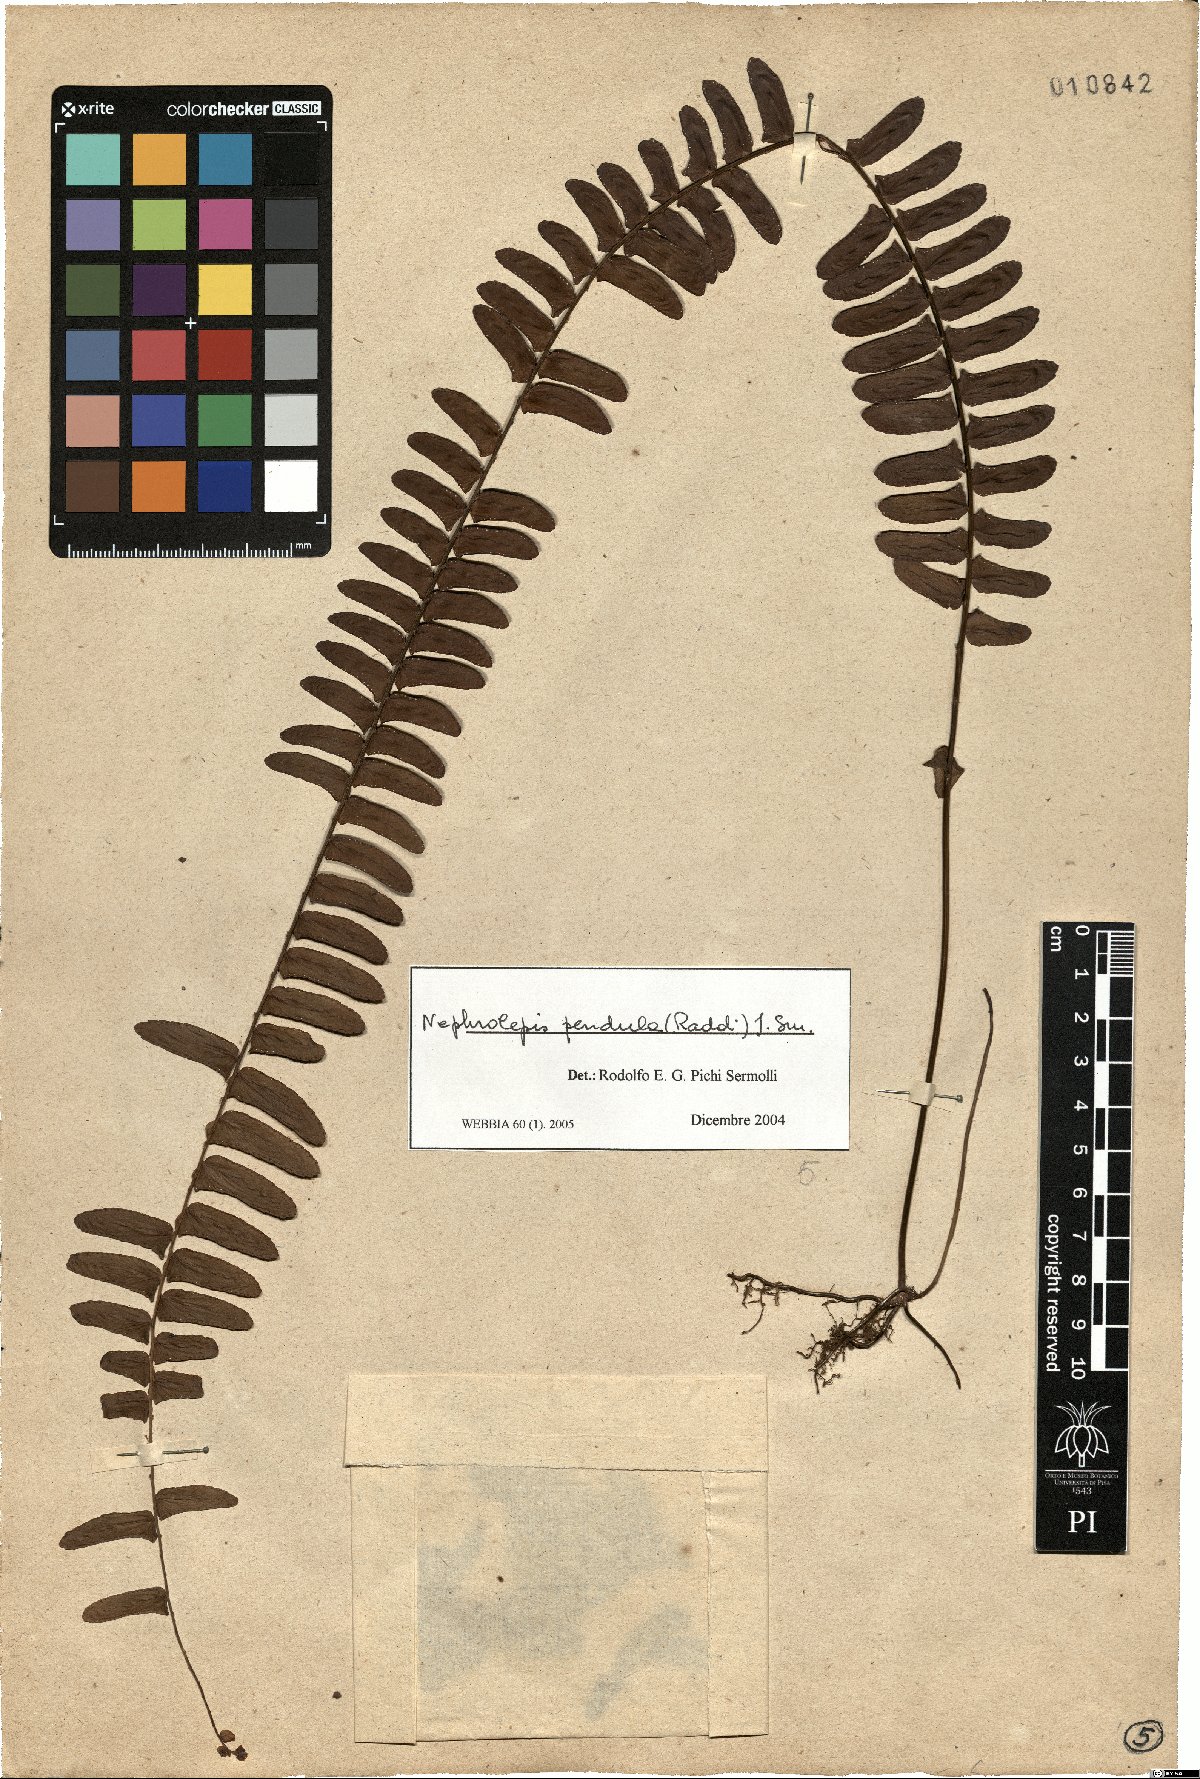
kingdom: Plantae
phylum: Tracheophyta
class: Polypodiopsida
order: Polypodiales
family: Nephrolepidaceae
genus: Nephrolepis
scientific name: Nephrolepis pendula
